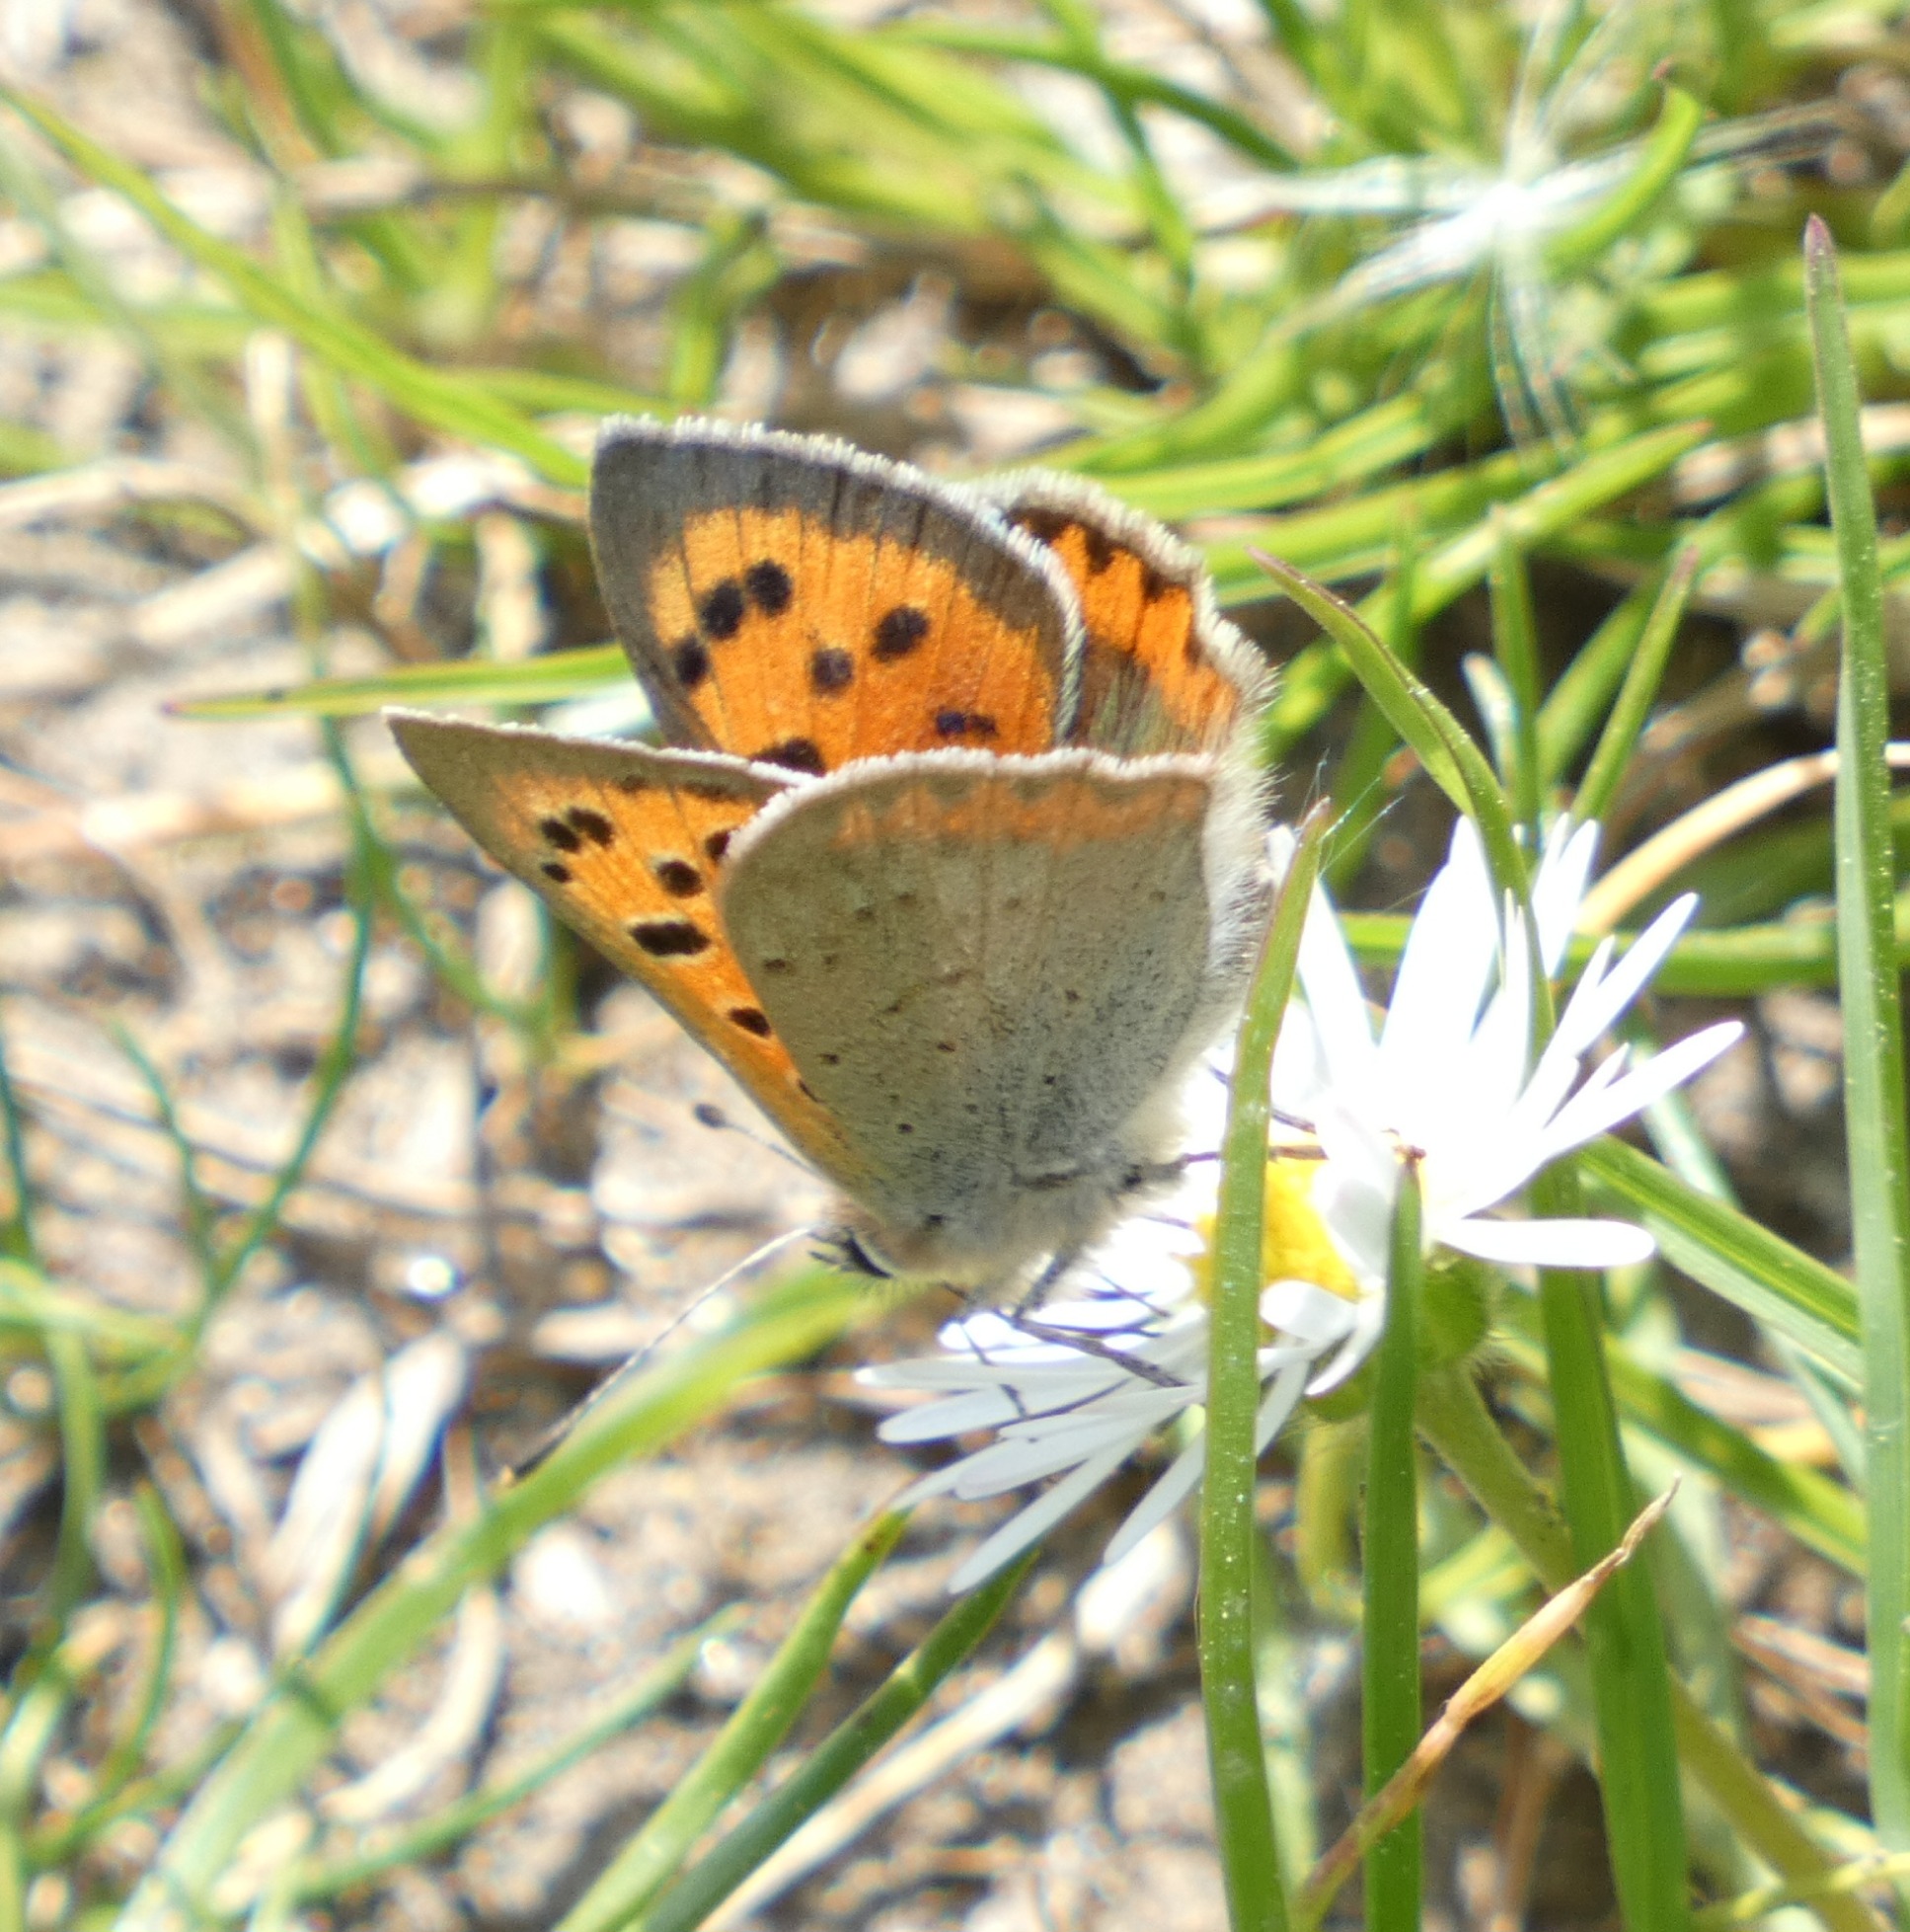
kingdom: Animalia
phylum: Arthropoda
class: Insecta
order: Lepidoptera
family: Lycaenidae
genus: Lycaena
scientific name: Lycaena phlaeas
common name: Lille ildfugl
